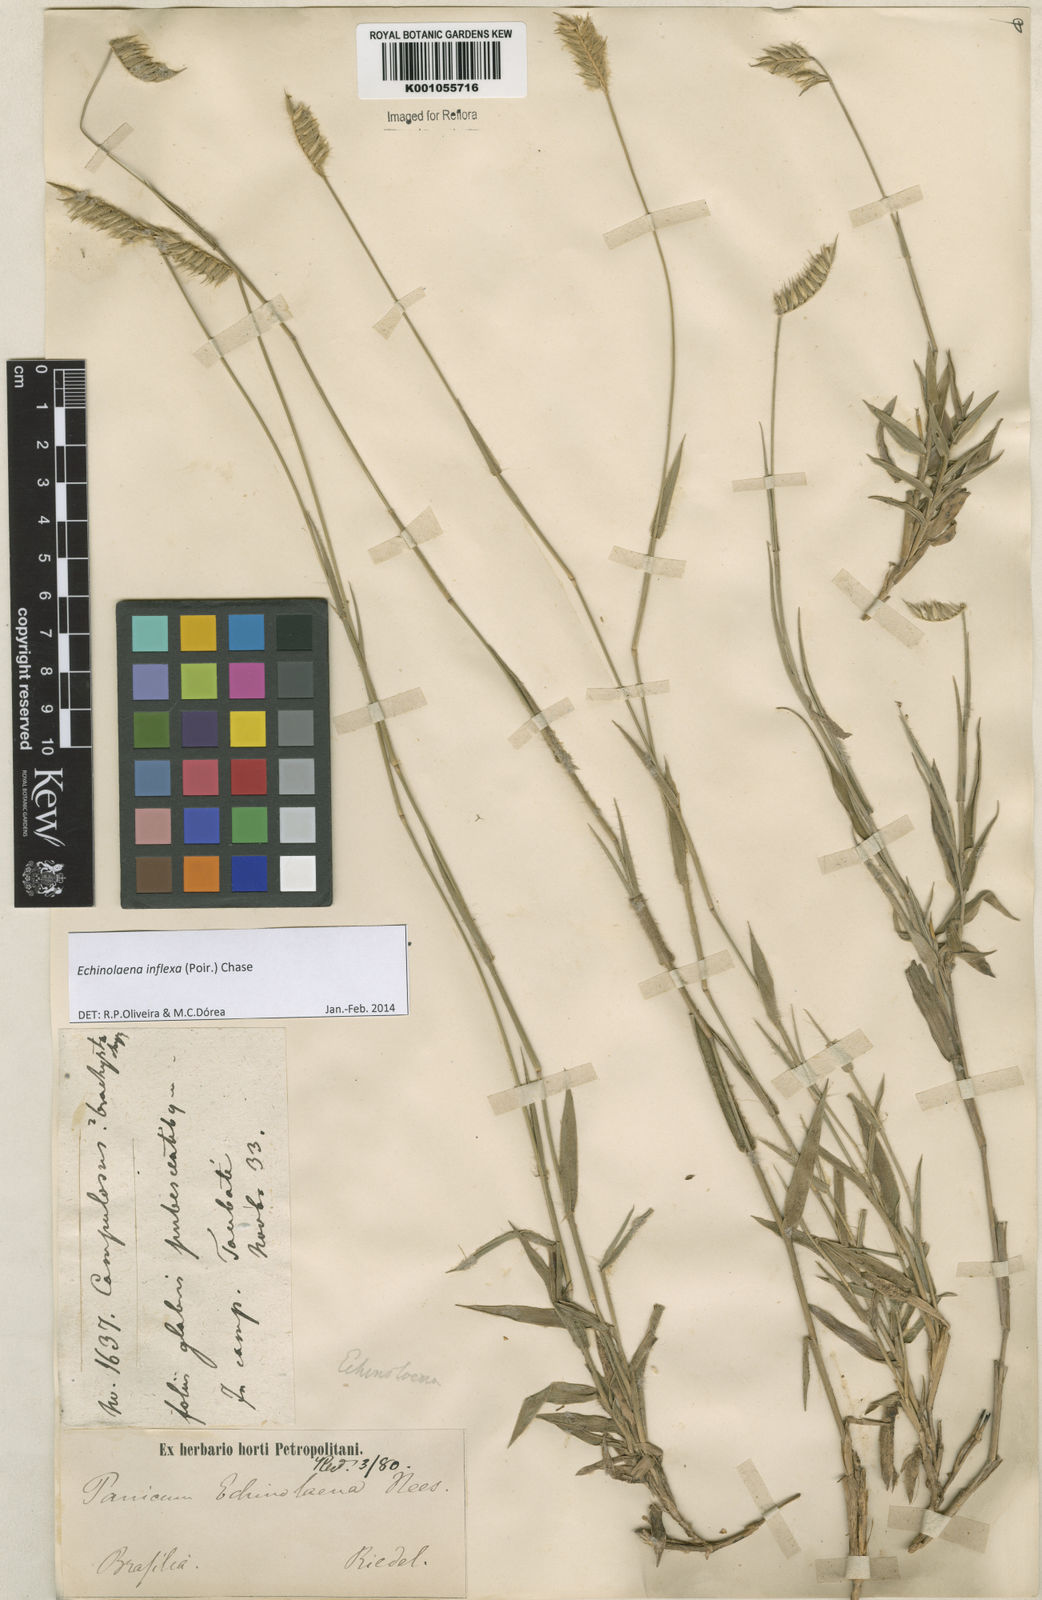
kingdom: Plantae
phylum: Tracheophyta
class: Liliopsida
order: Poales
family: Poaceae
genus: Echinolaena
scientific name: Echinolaena inflexa
